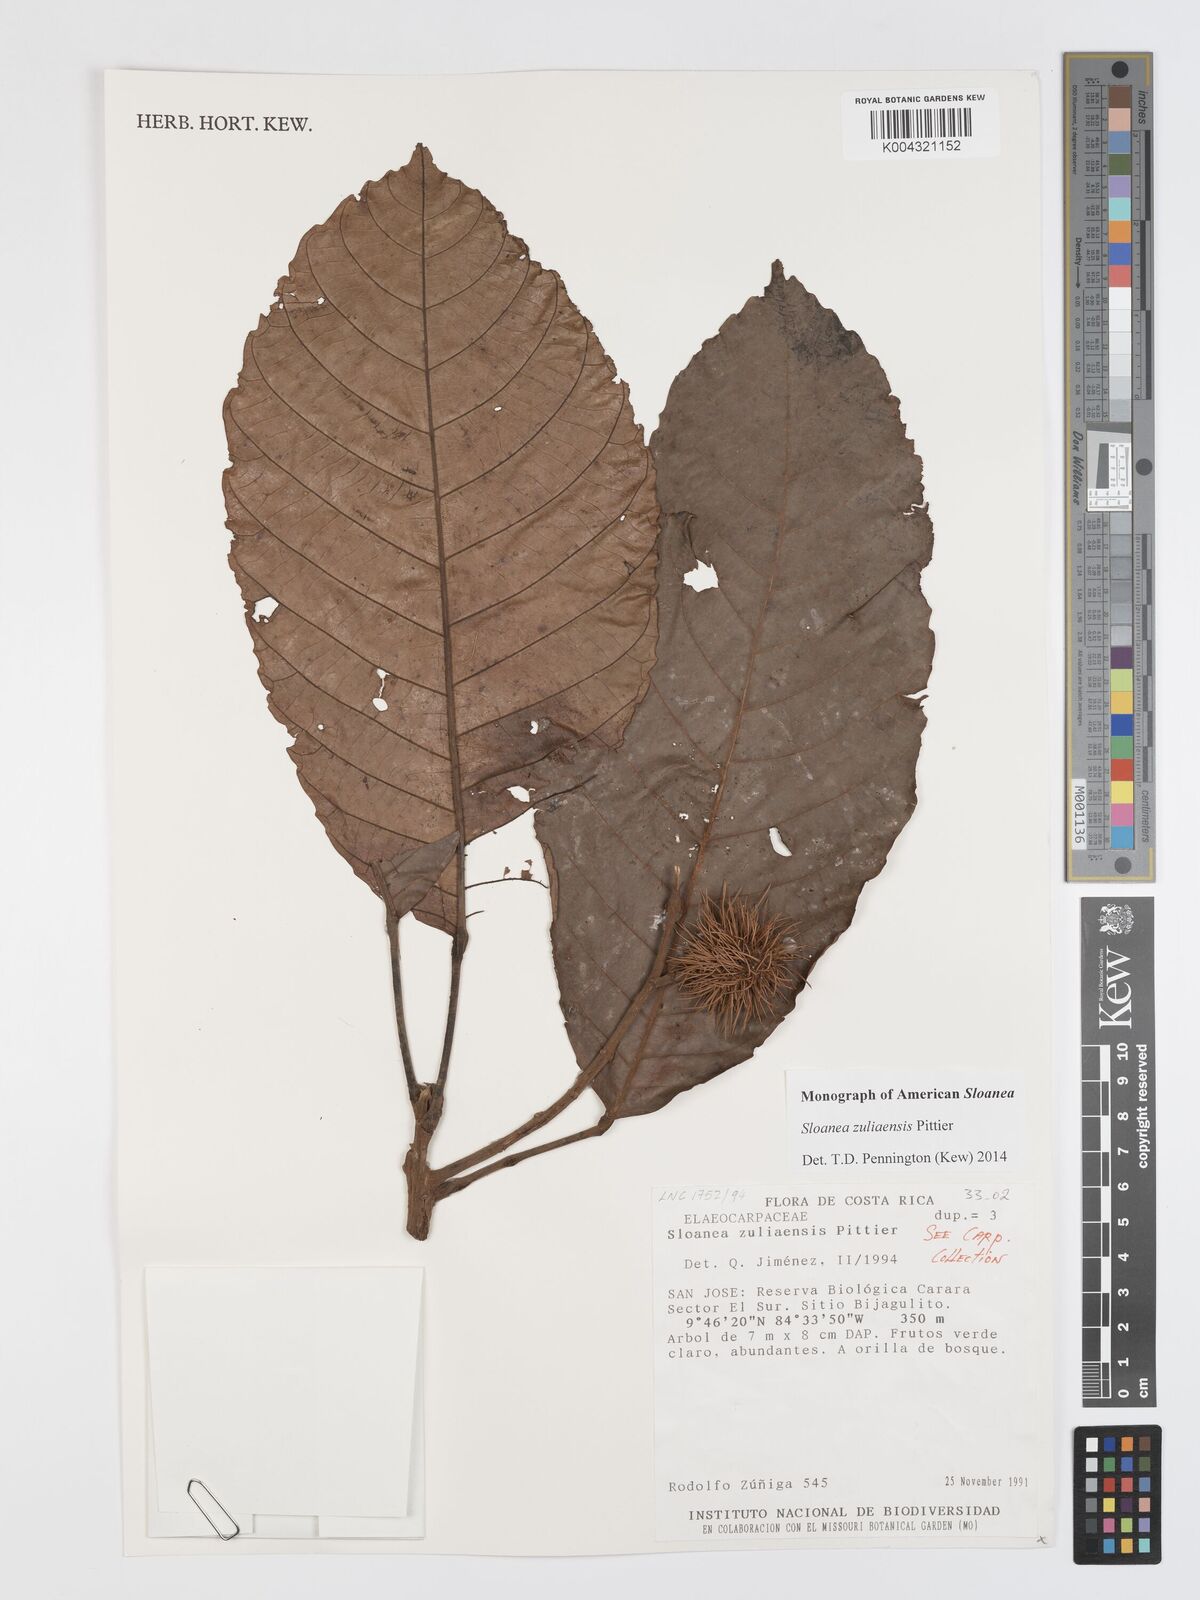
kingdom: Plantae
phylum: Tracheophyta
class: Magnoliopsida
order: Oxalidales
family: Elaeocarpaceae
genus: Sloanea
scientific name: Sloanea zuliaensis
